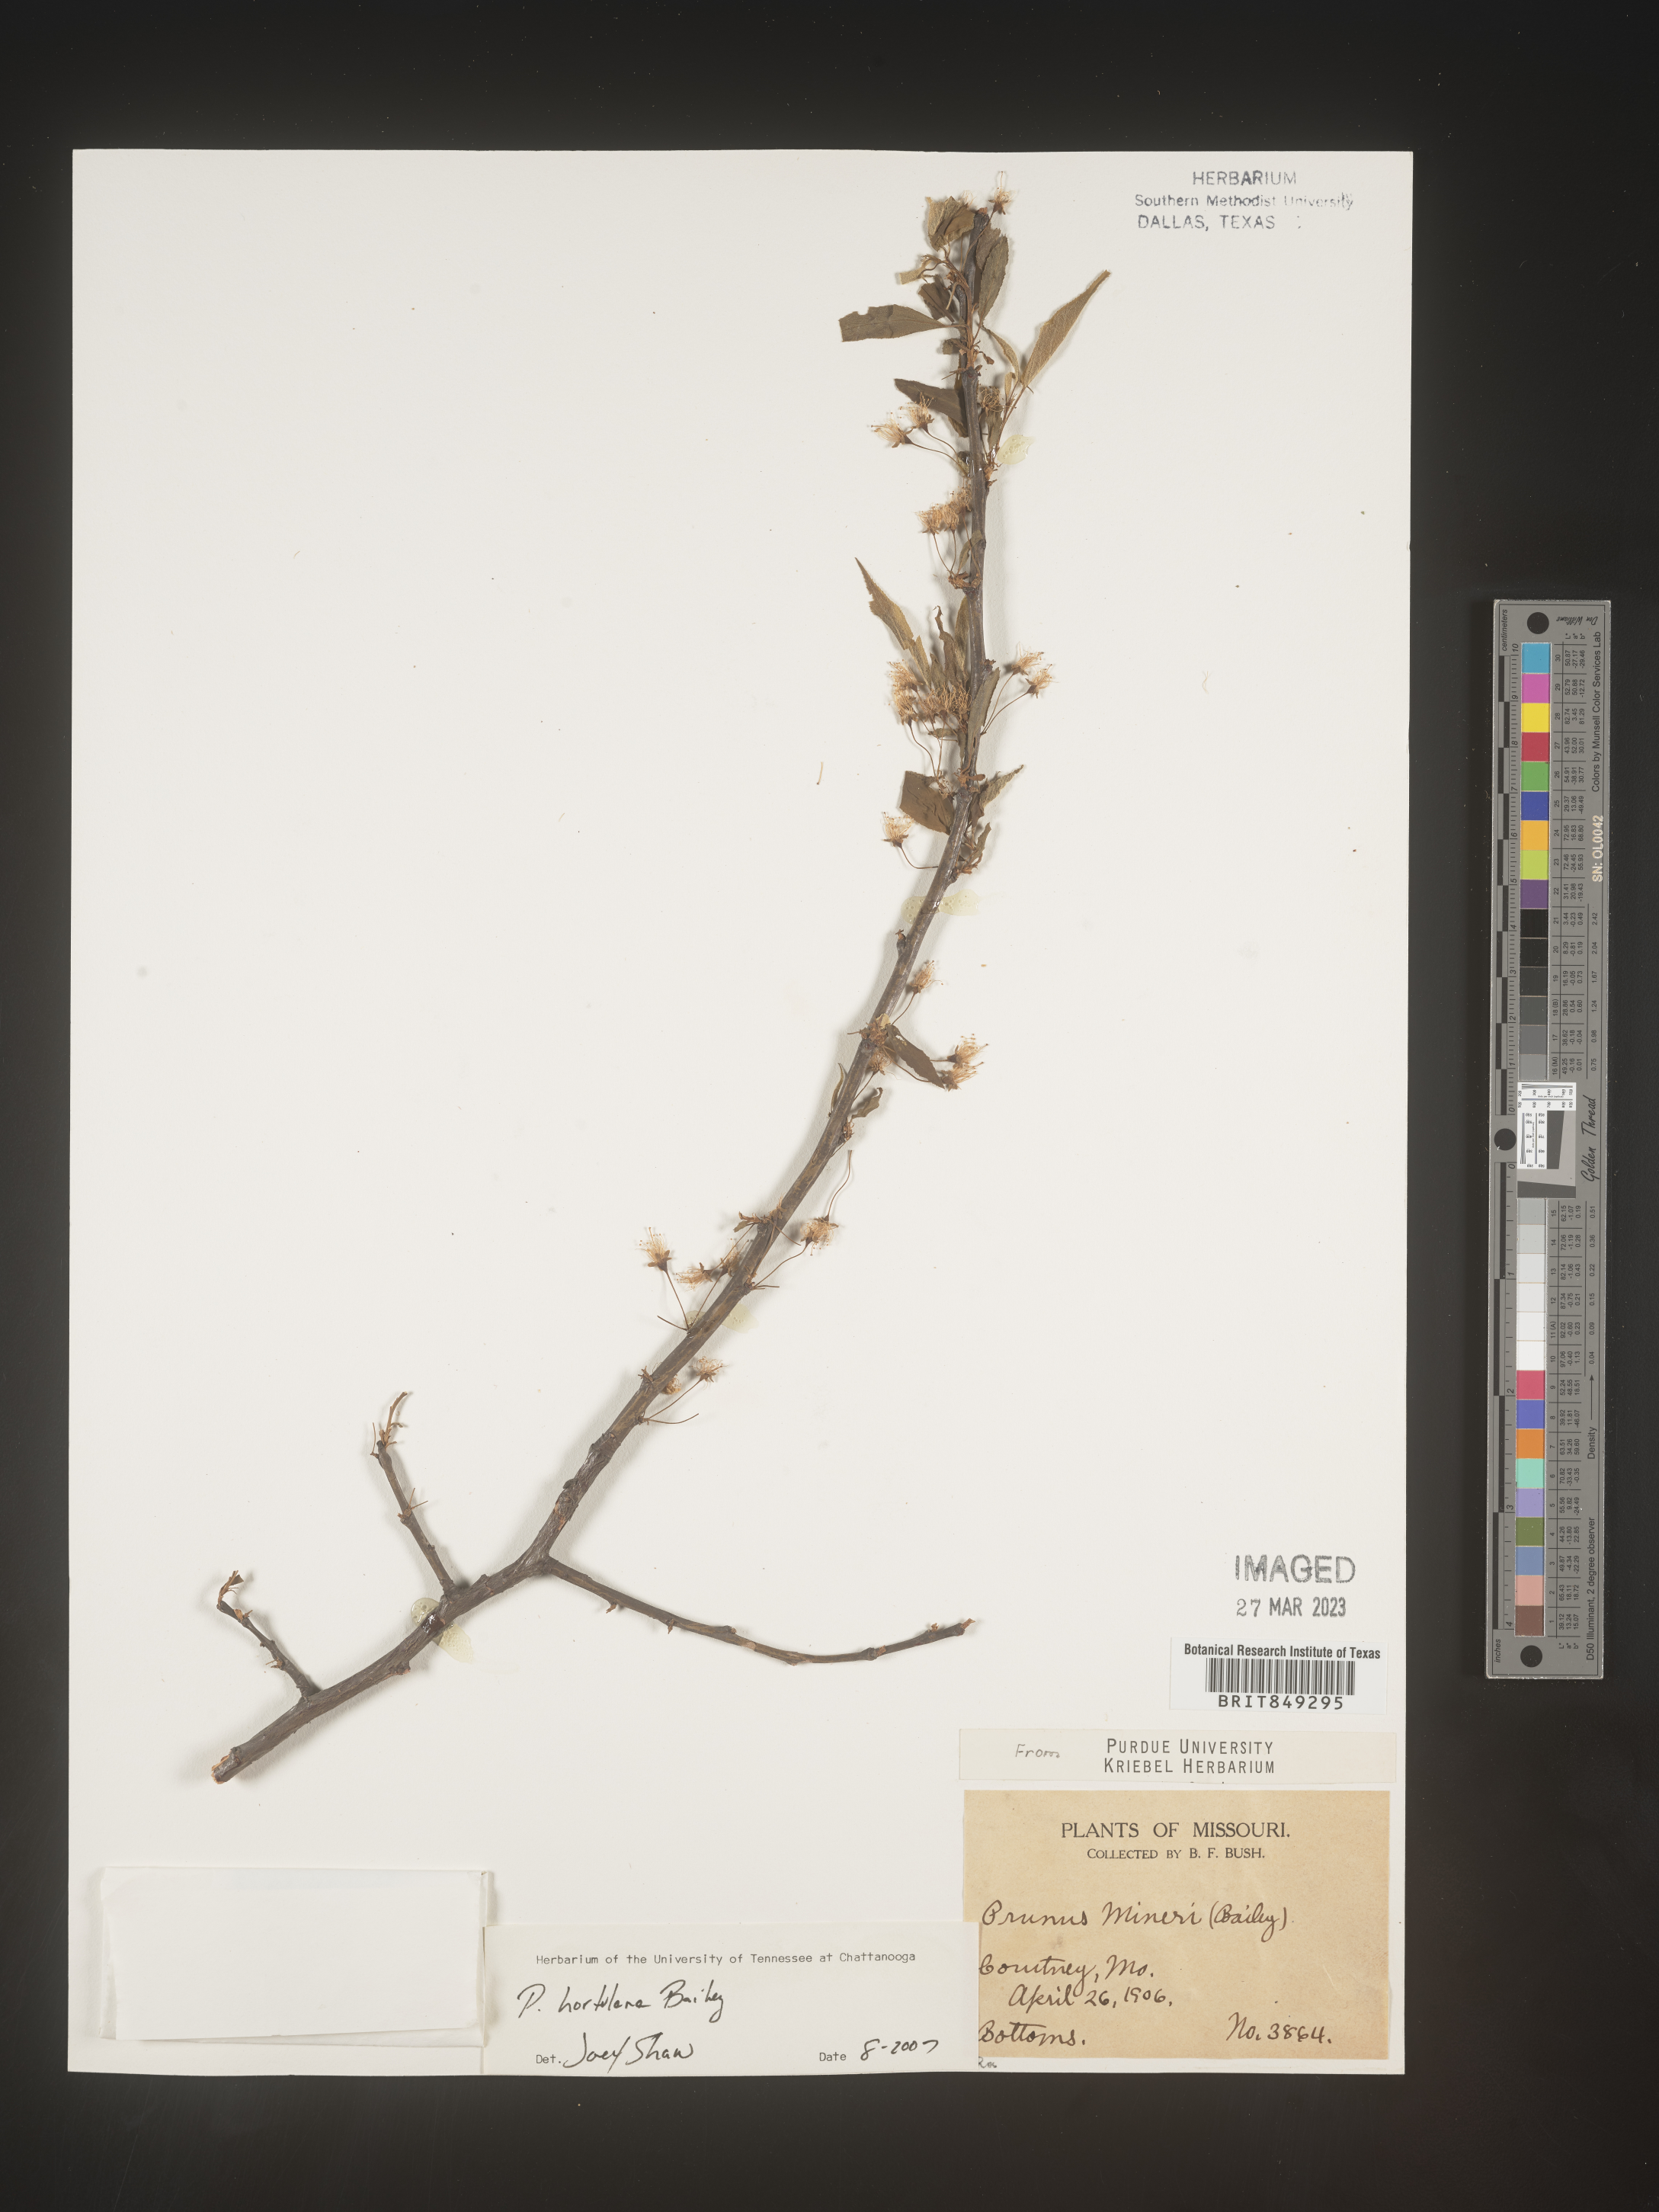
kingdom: Plantae
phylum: Tracheophyta
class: Magnoliopsida
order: Rosales
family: Rosaceae
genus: Prunus
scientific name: Prunus hortulana
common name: Hortulan plum
